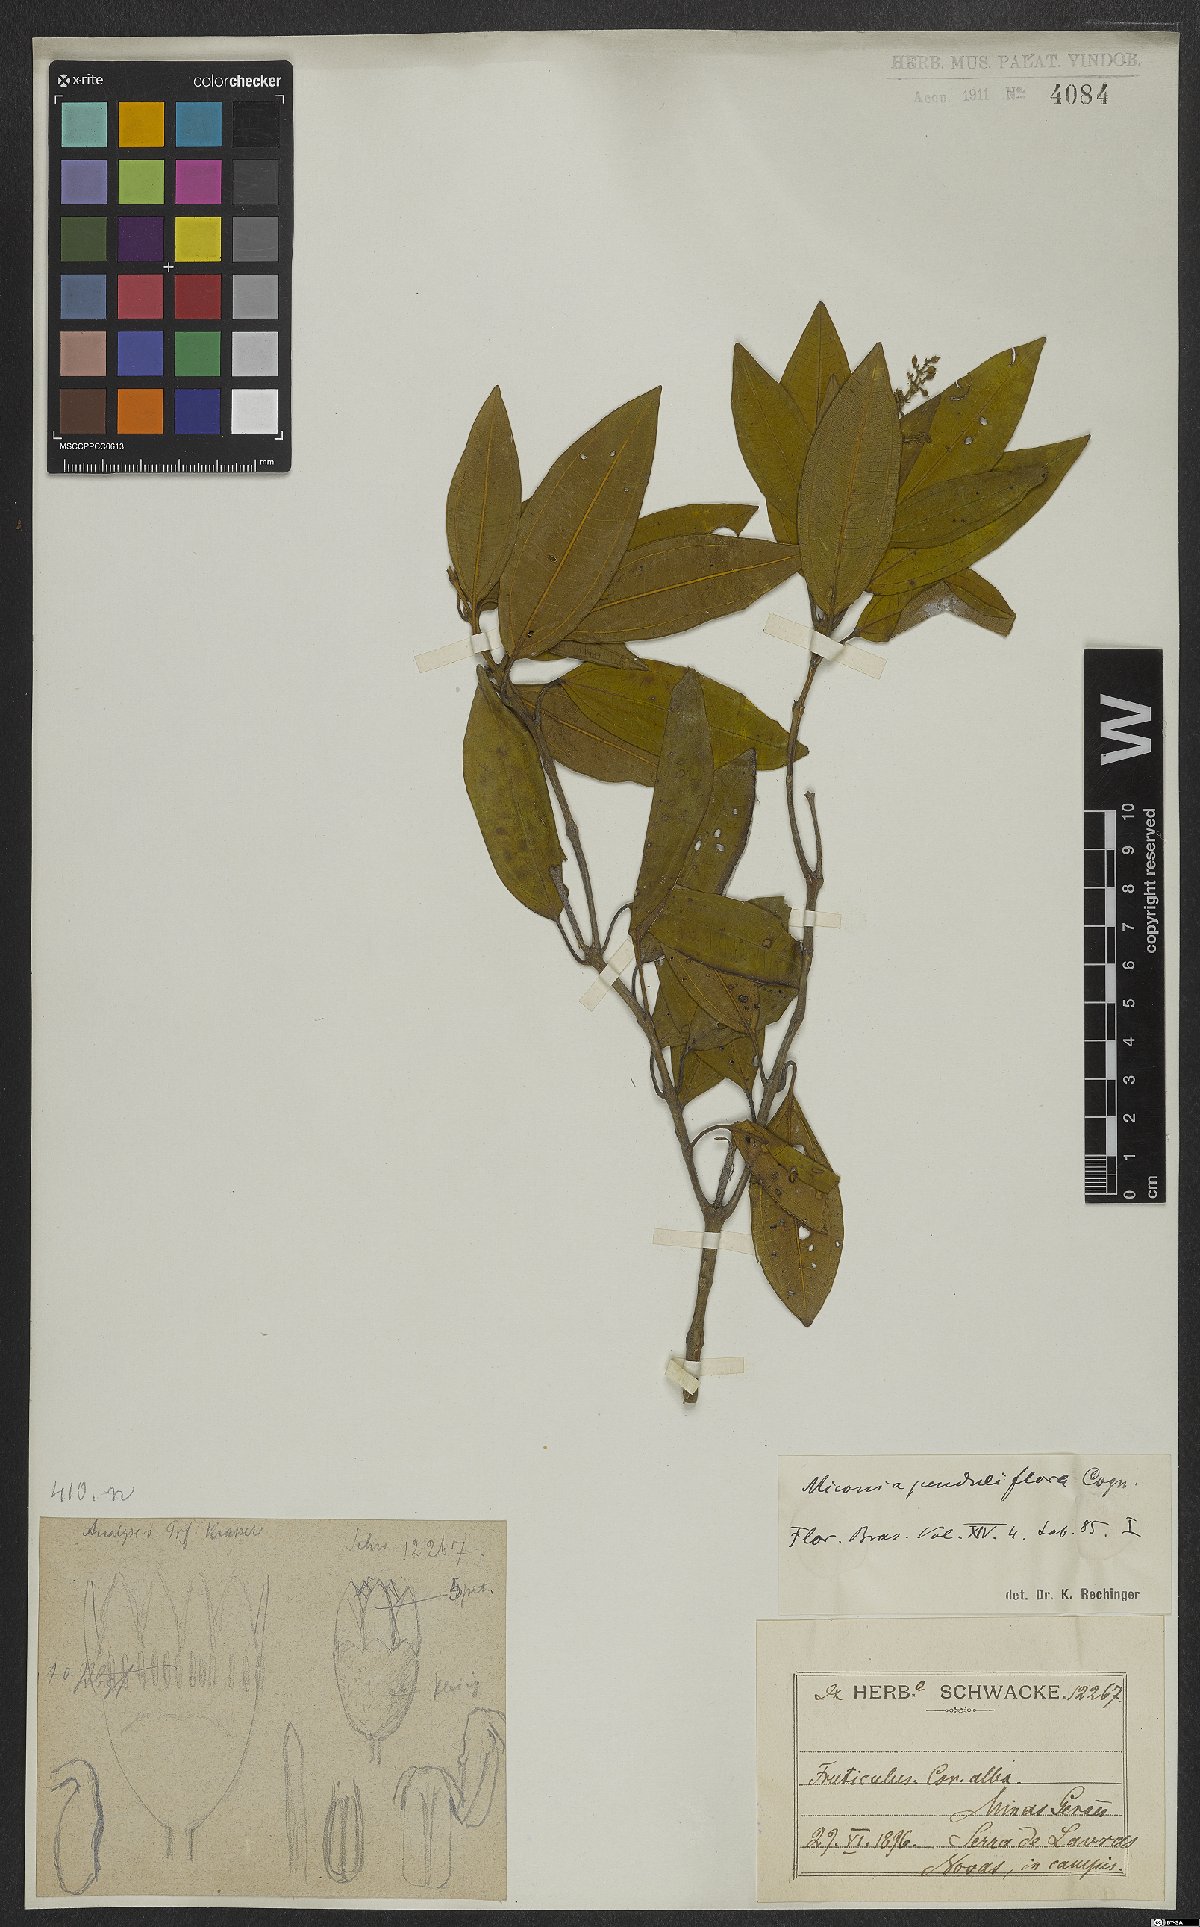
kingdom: Plantae
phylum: Tracheophyta
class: Magnoliopsida
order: Myrtales
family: Melastomataceae
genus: Miconia
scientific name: Miconia penduliflora
